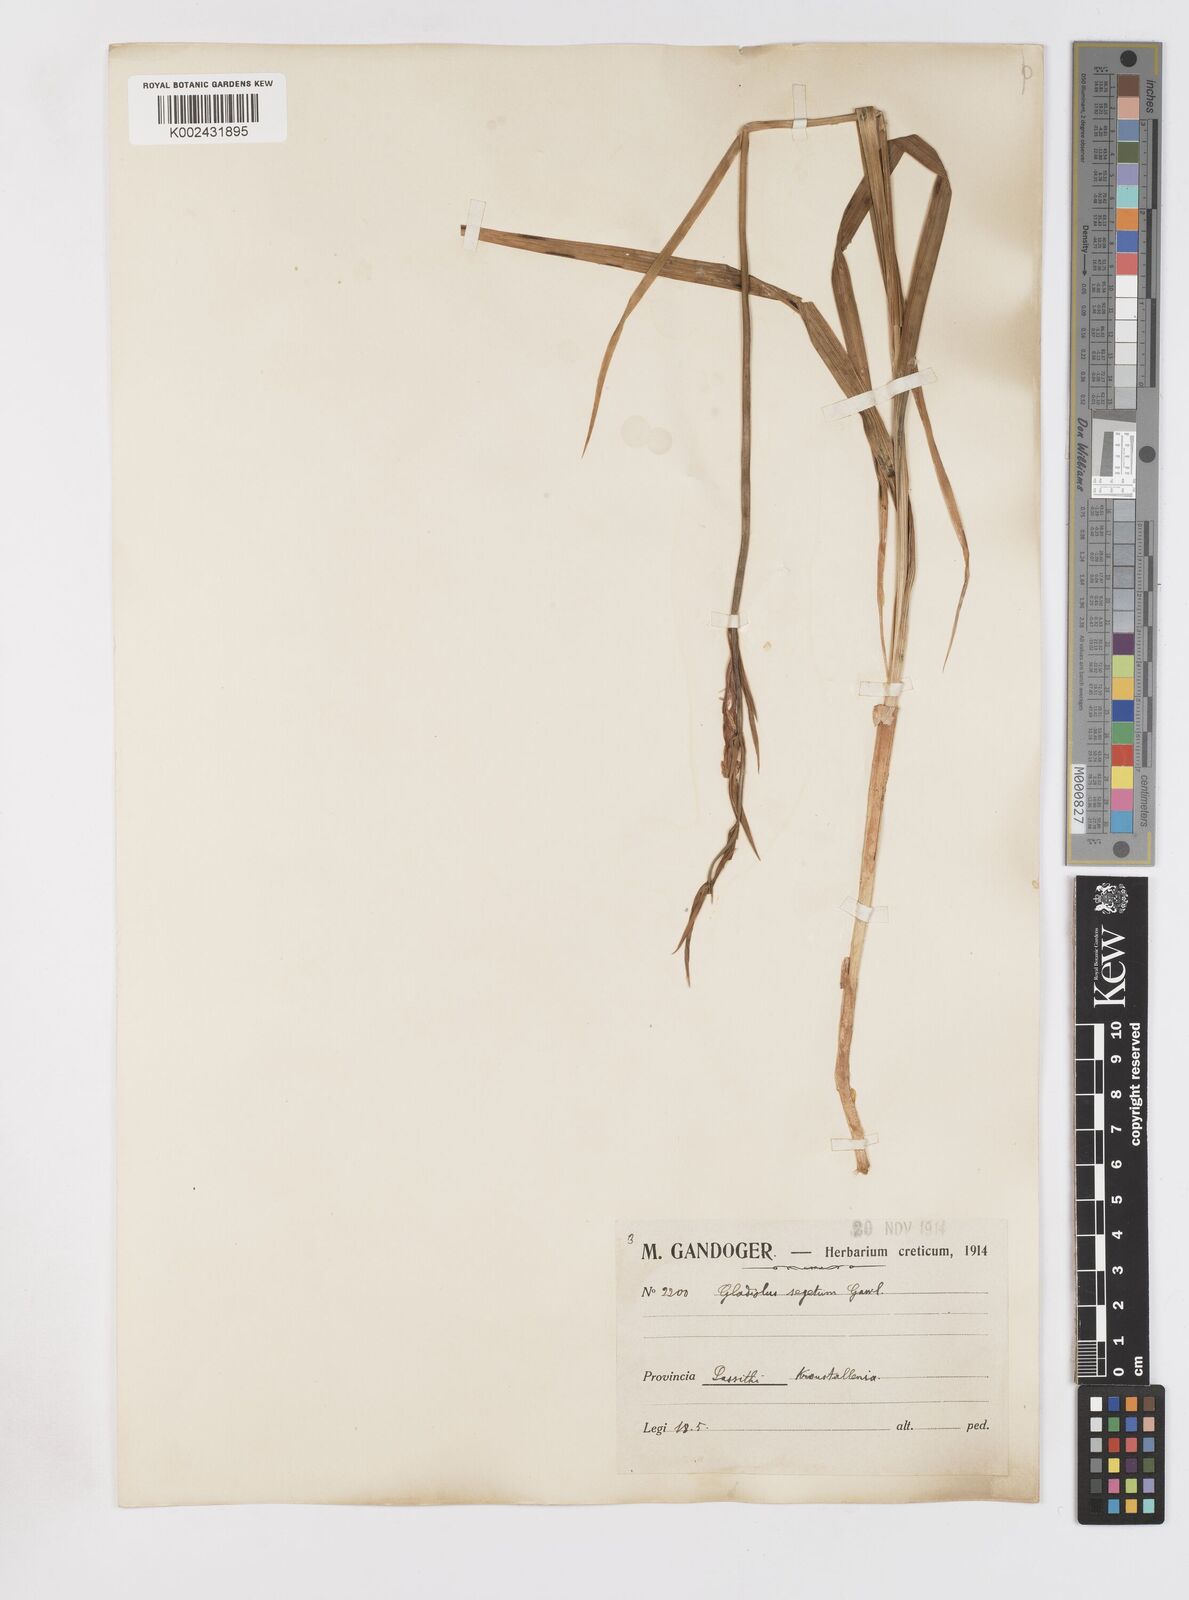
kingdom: Plantae
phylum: Tracheophyta
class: Liliopsida
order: Asparagales
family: Iridaceae
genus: Gladiolus
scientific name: Gladiolus italicus
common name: Field gladiolus
